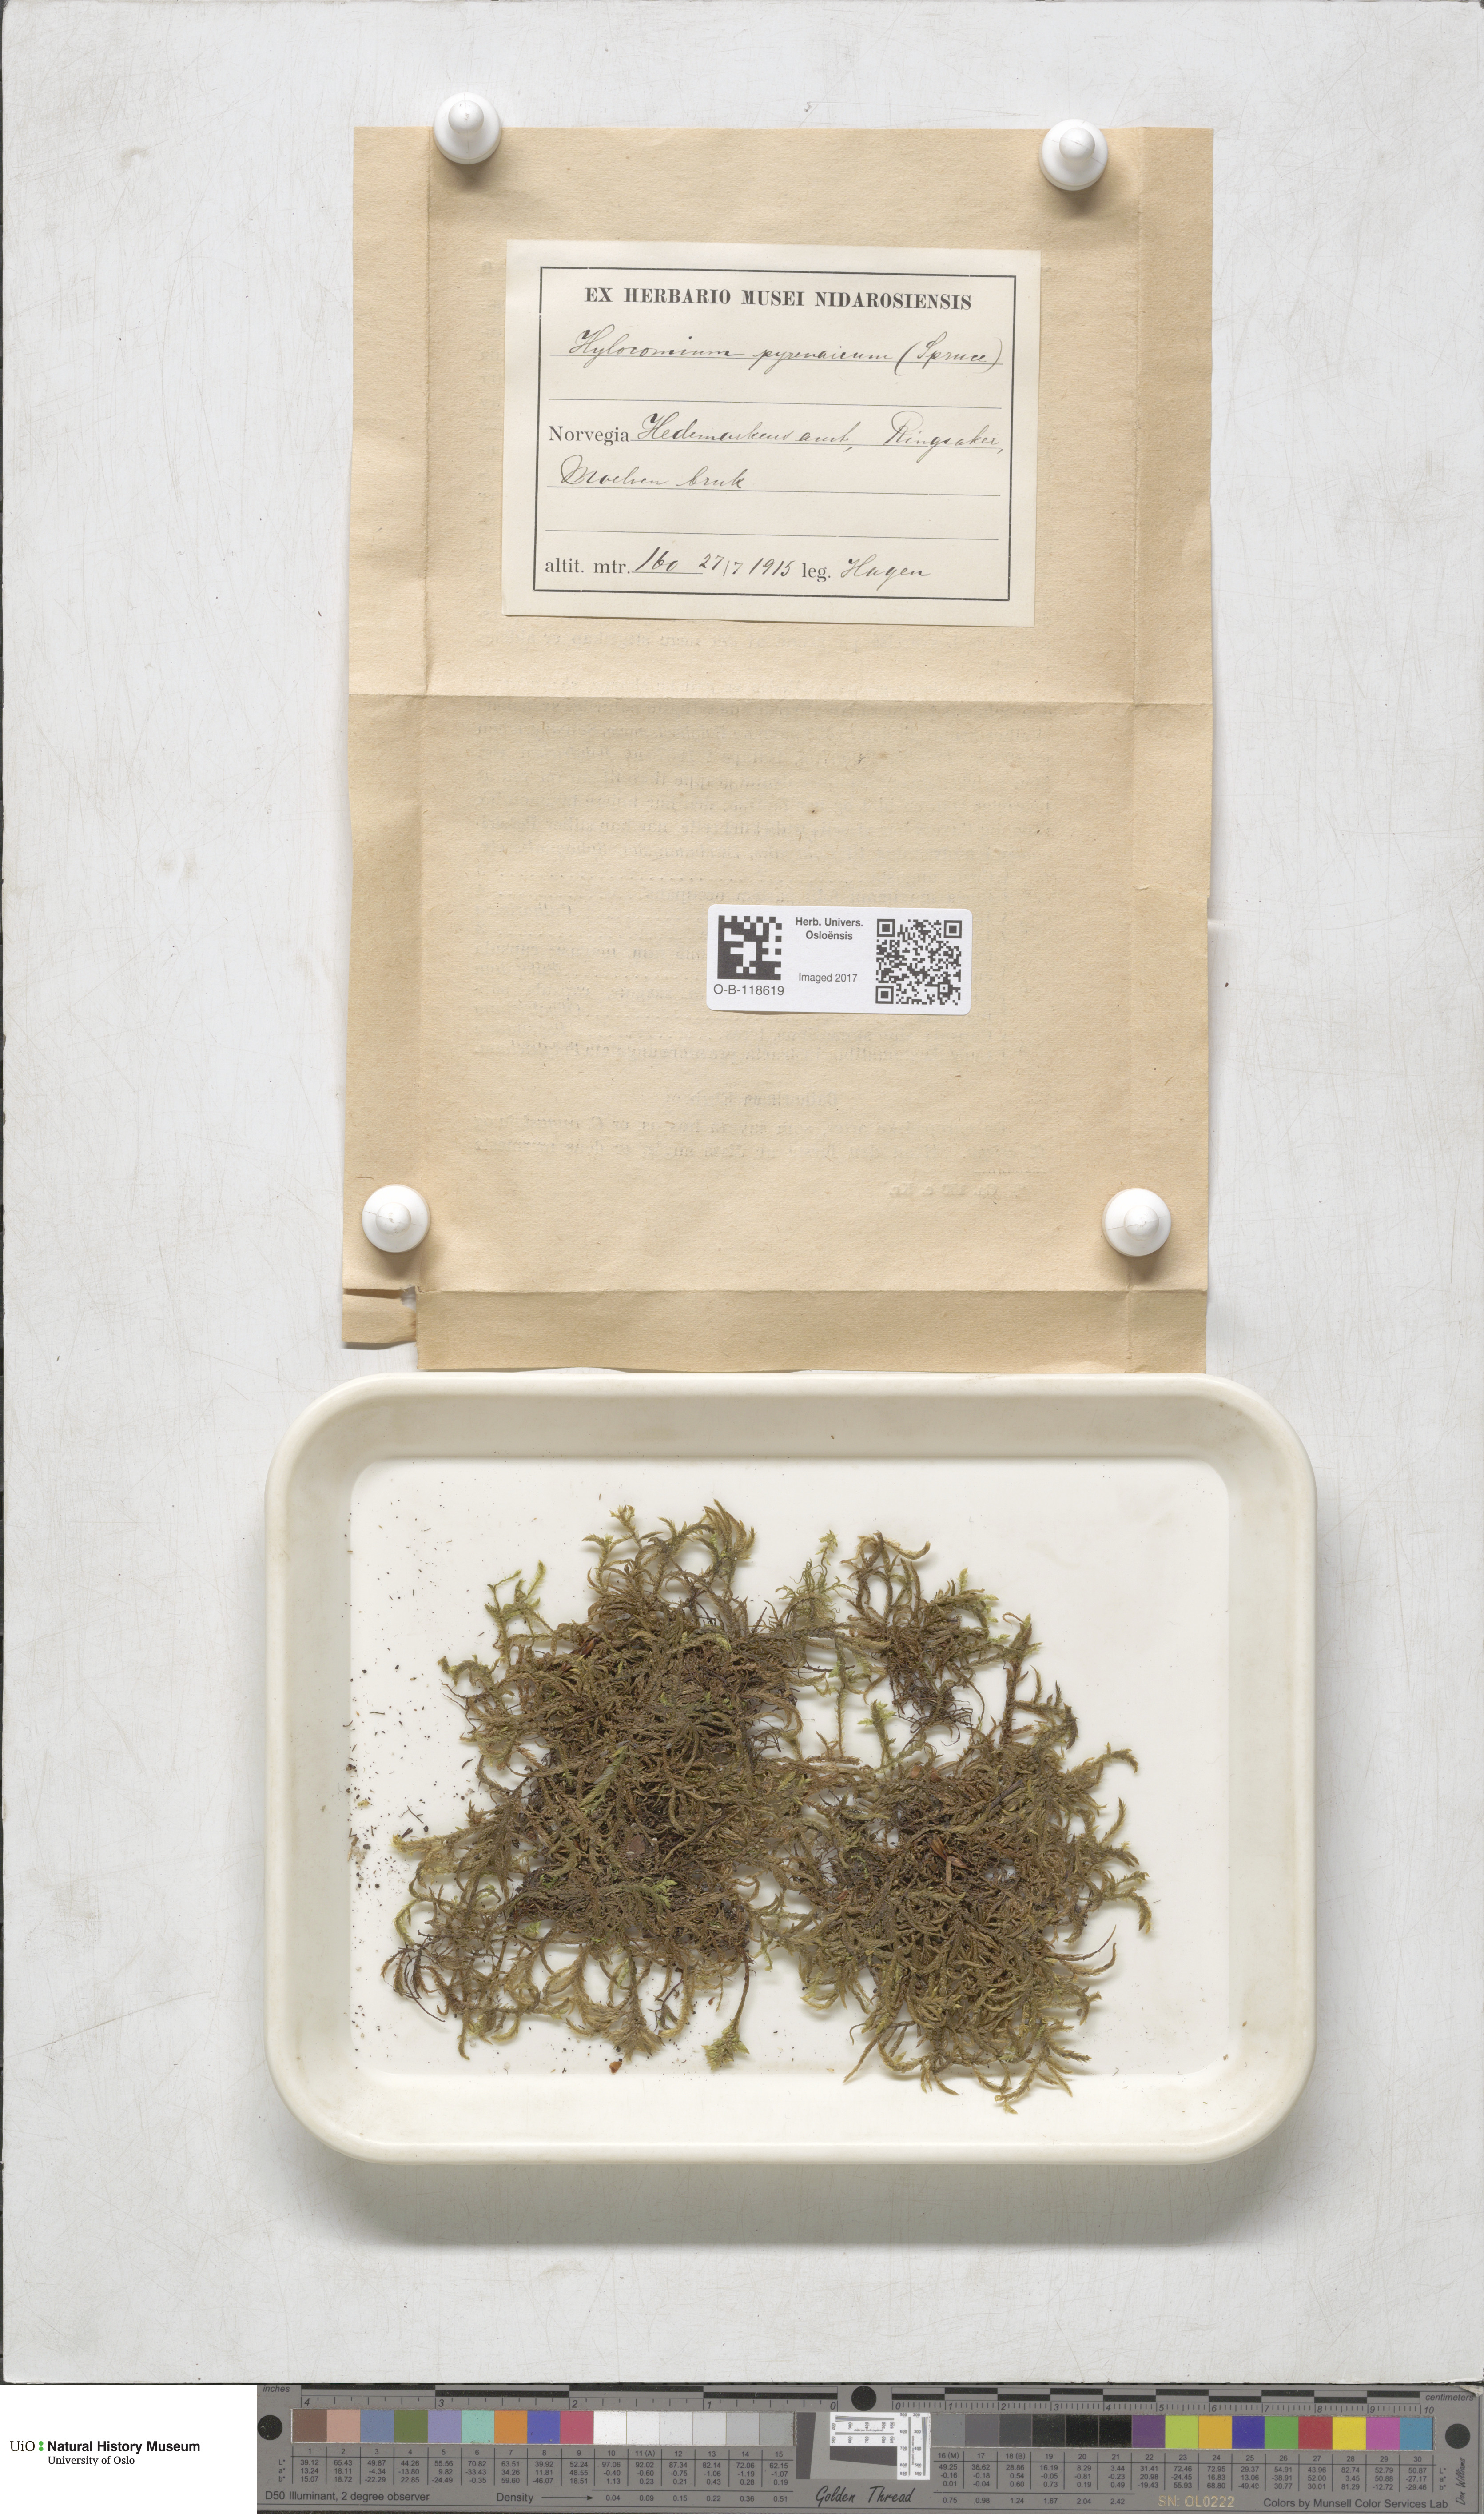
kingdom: Plantae
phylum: Bryophyta
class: Bryopsida
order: Hypnales
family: Hylocomiaceae
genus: Hylocomiastrum
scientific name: Hylocomiastrum pyrenaicum
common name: Oake s wood moss
